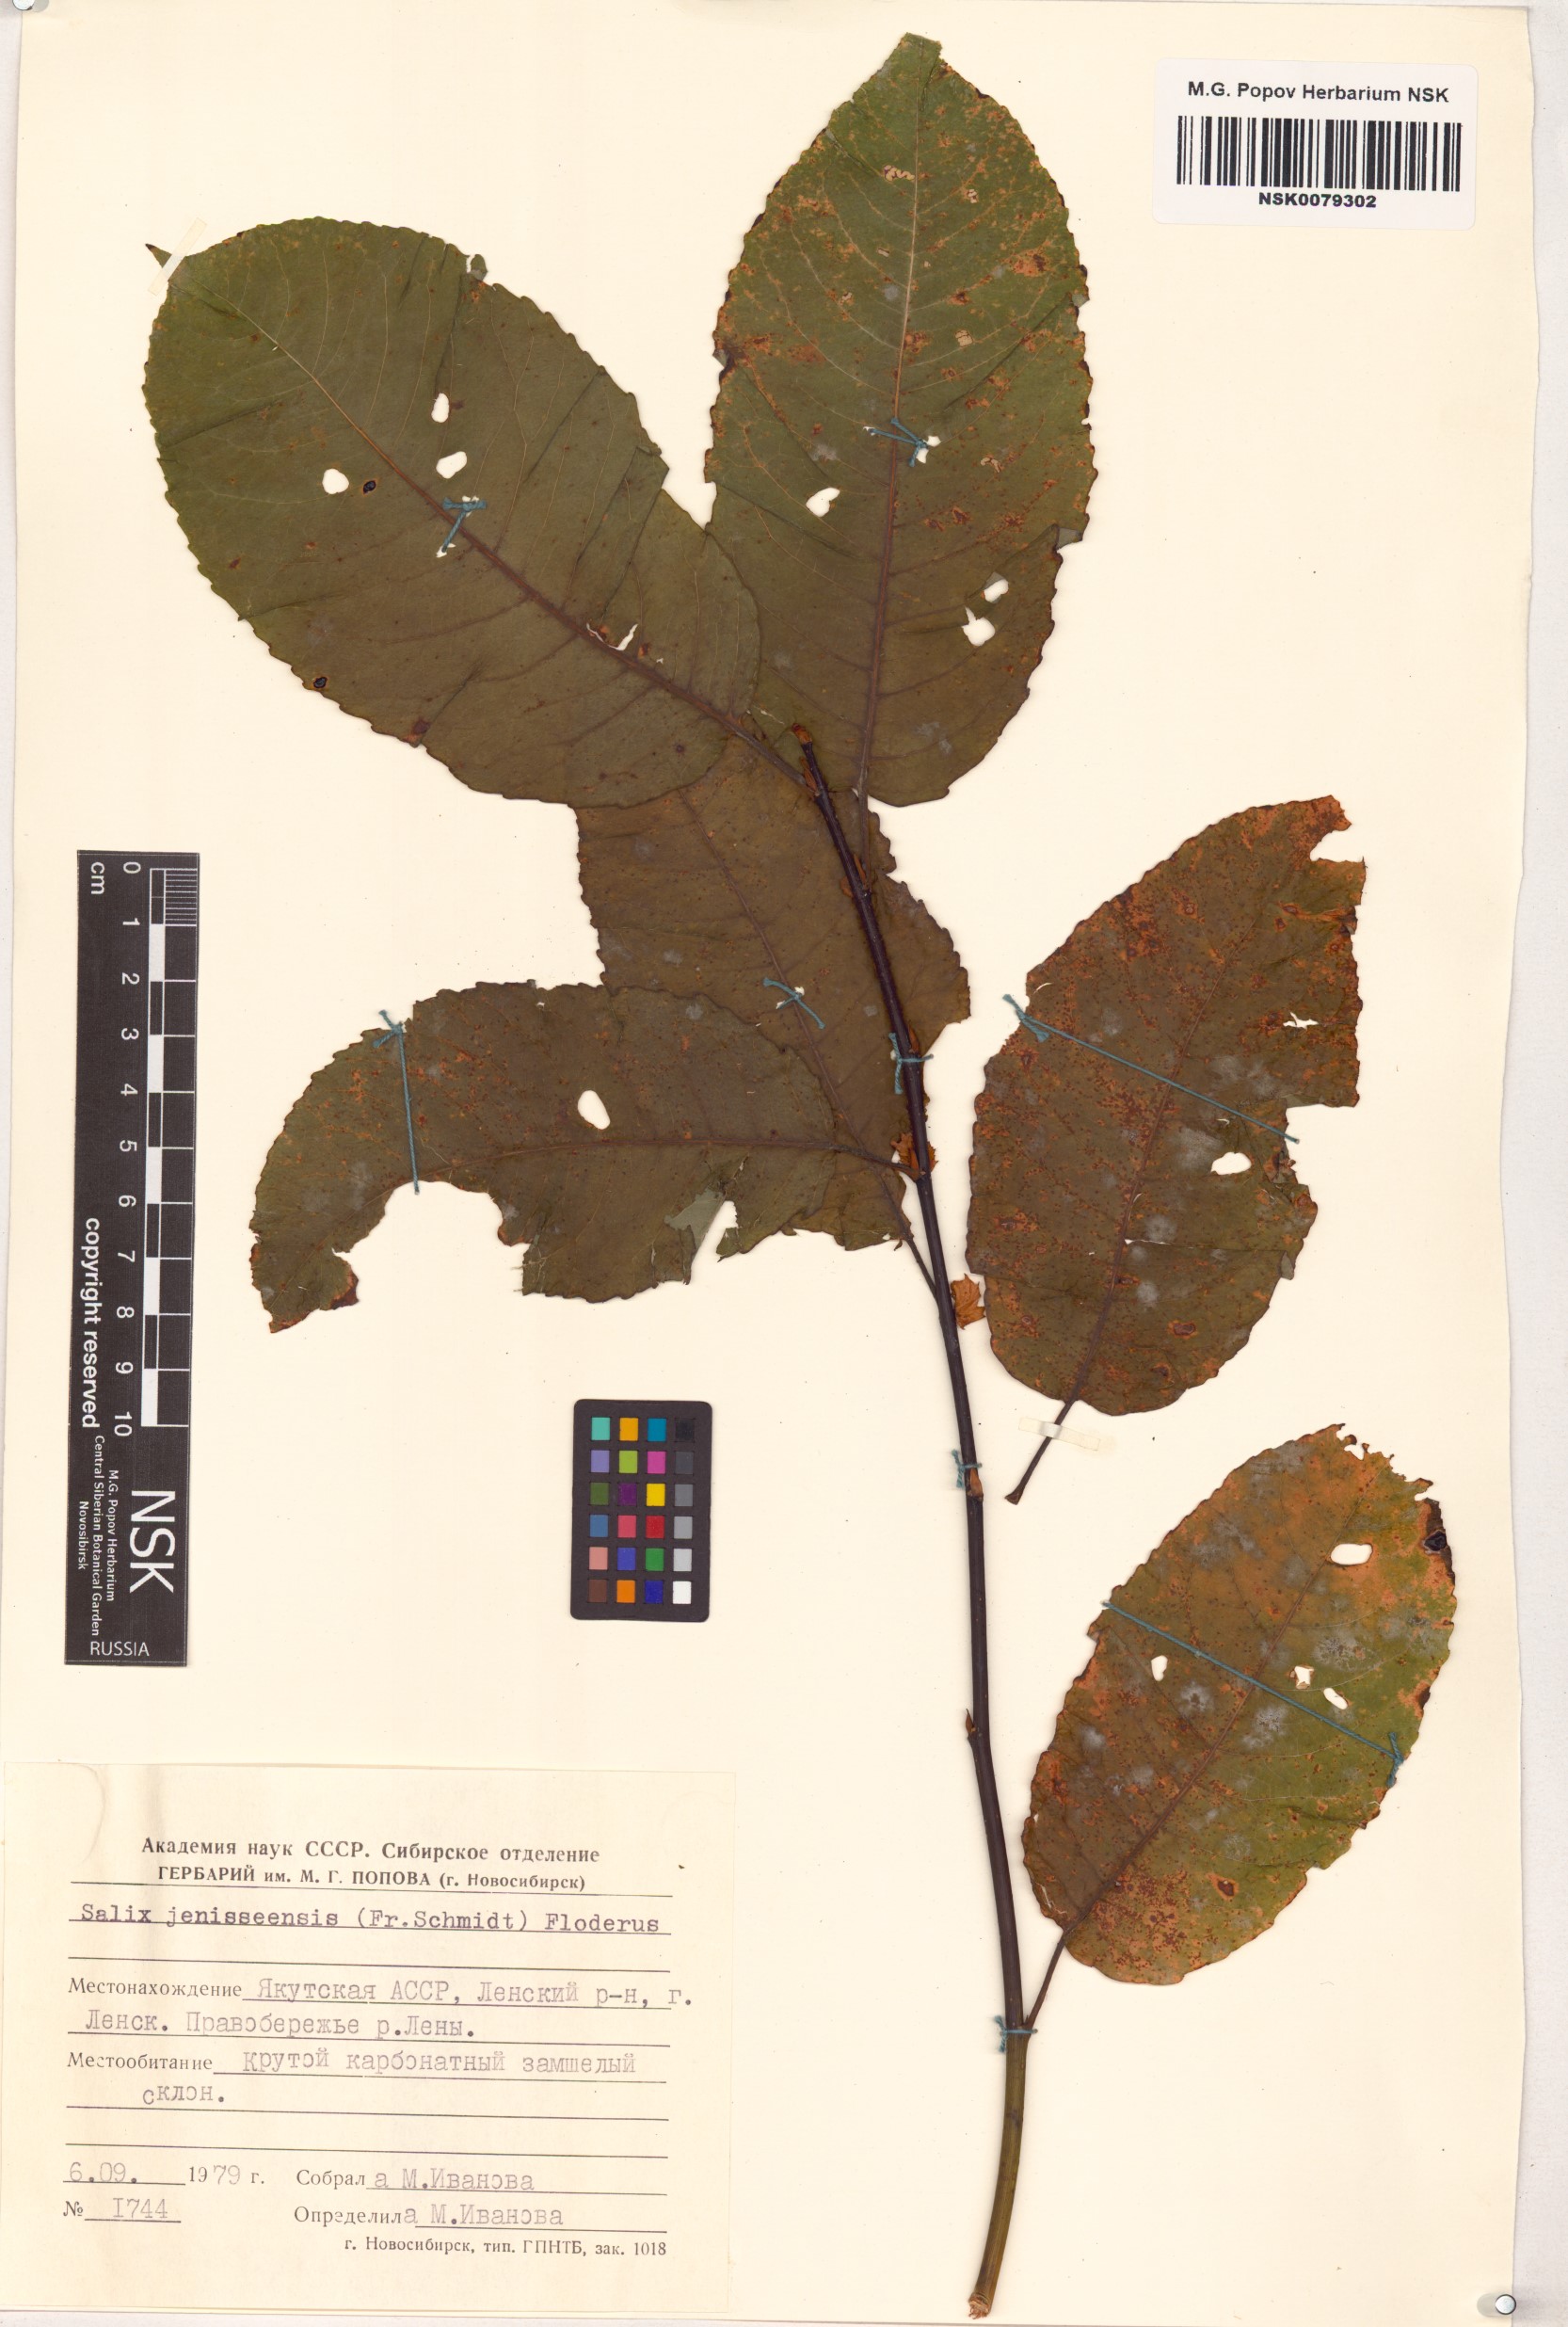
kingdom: Plantae
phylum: Tracheophyta
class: Magnoliopsida
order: Malpighiales
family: Salicaceae
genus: Salix
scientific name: Salix jenisseensis
